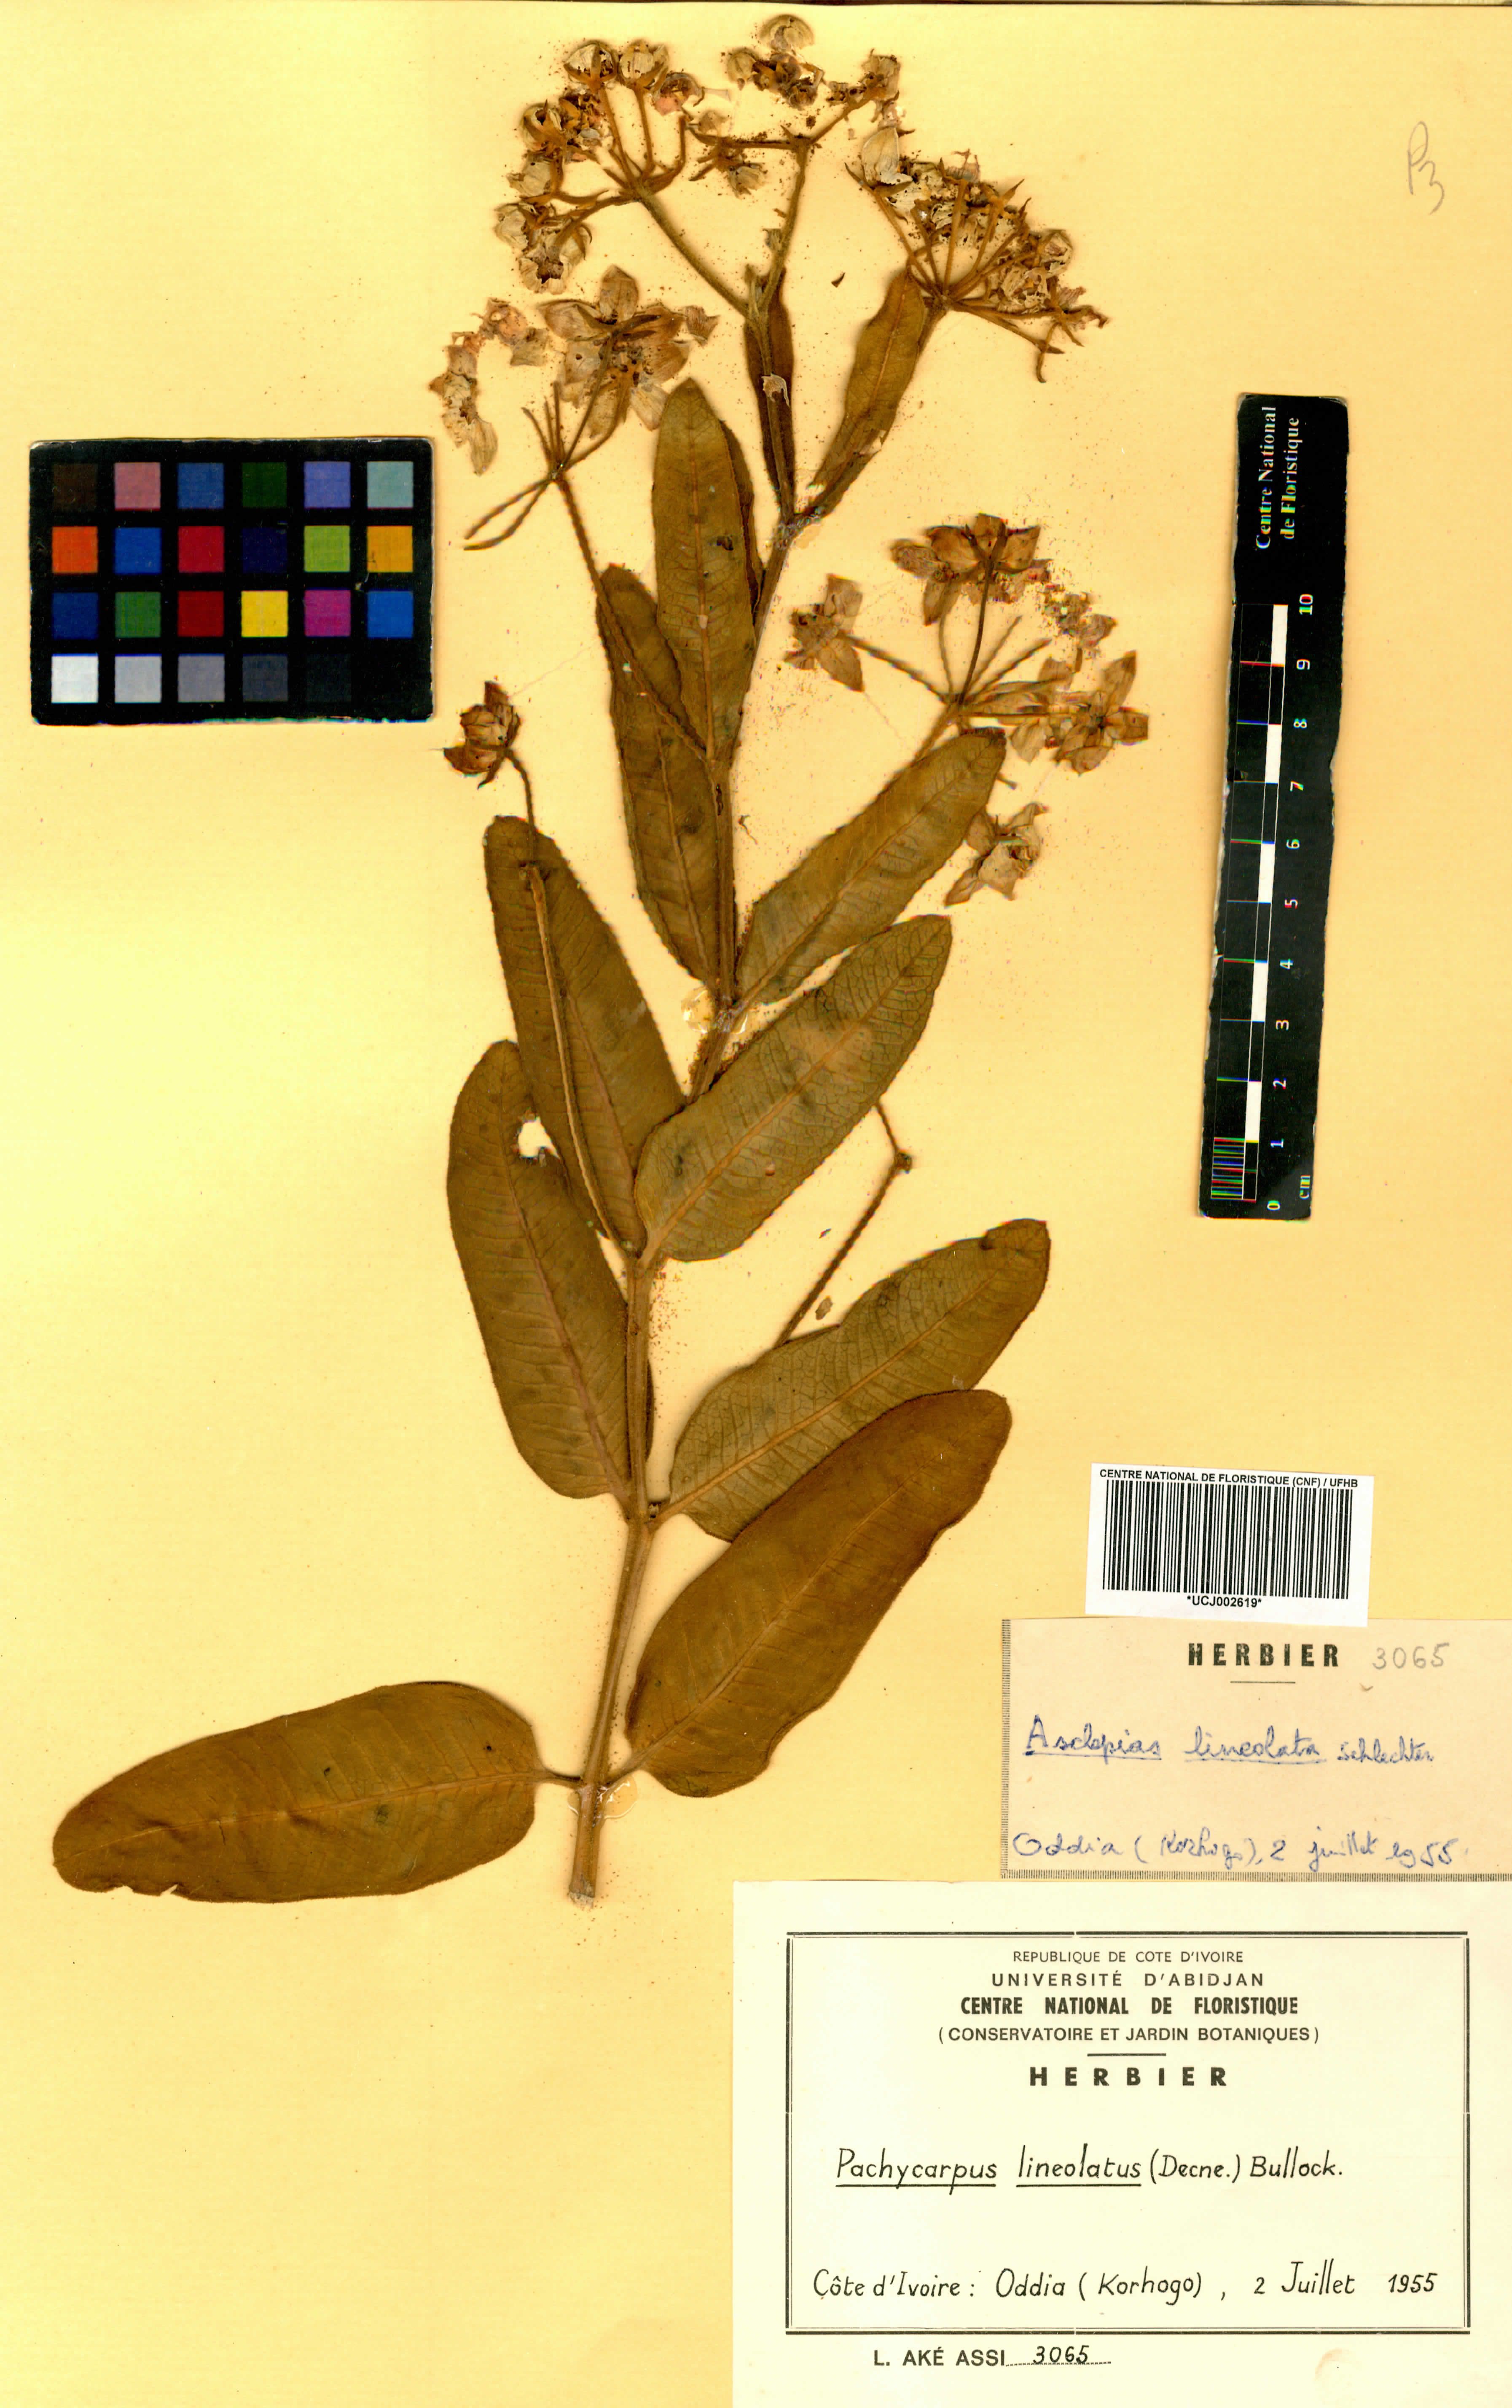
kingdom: Plantae
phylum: Tracheophyta
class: Magnoliopsida
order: Gentianales
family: Apocynaceae
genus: Pachycarpus
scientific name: Pachycarpus lineolatus
